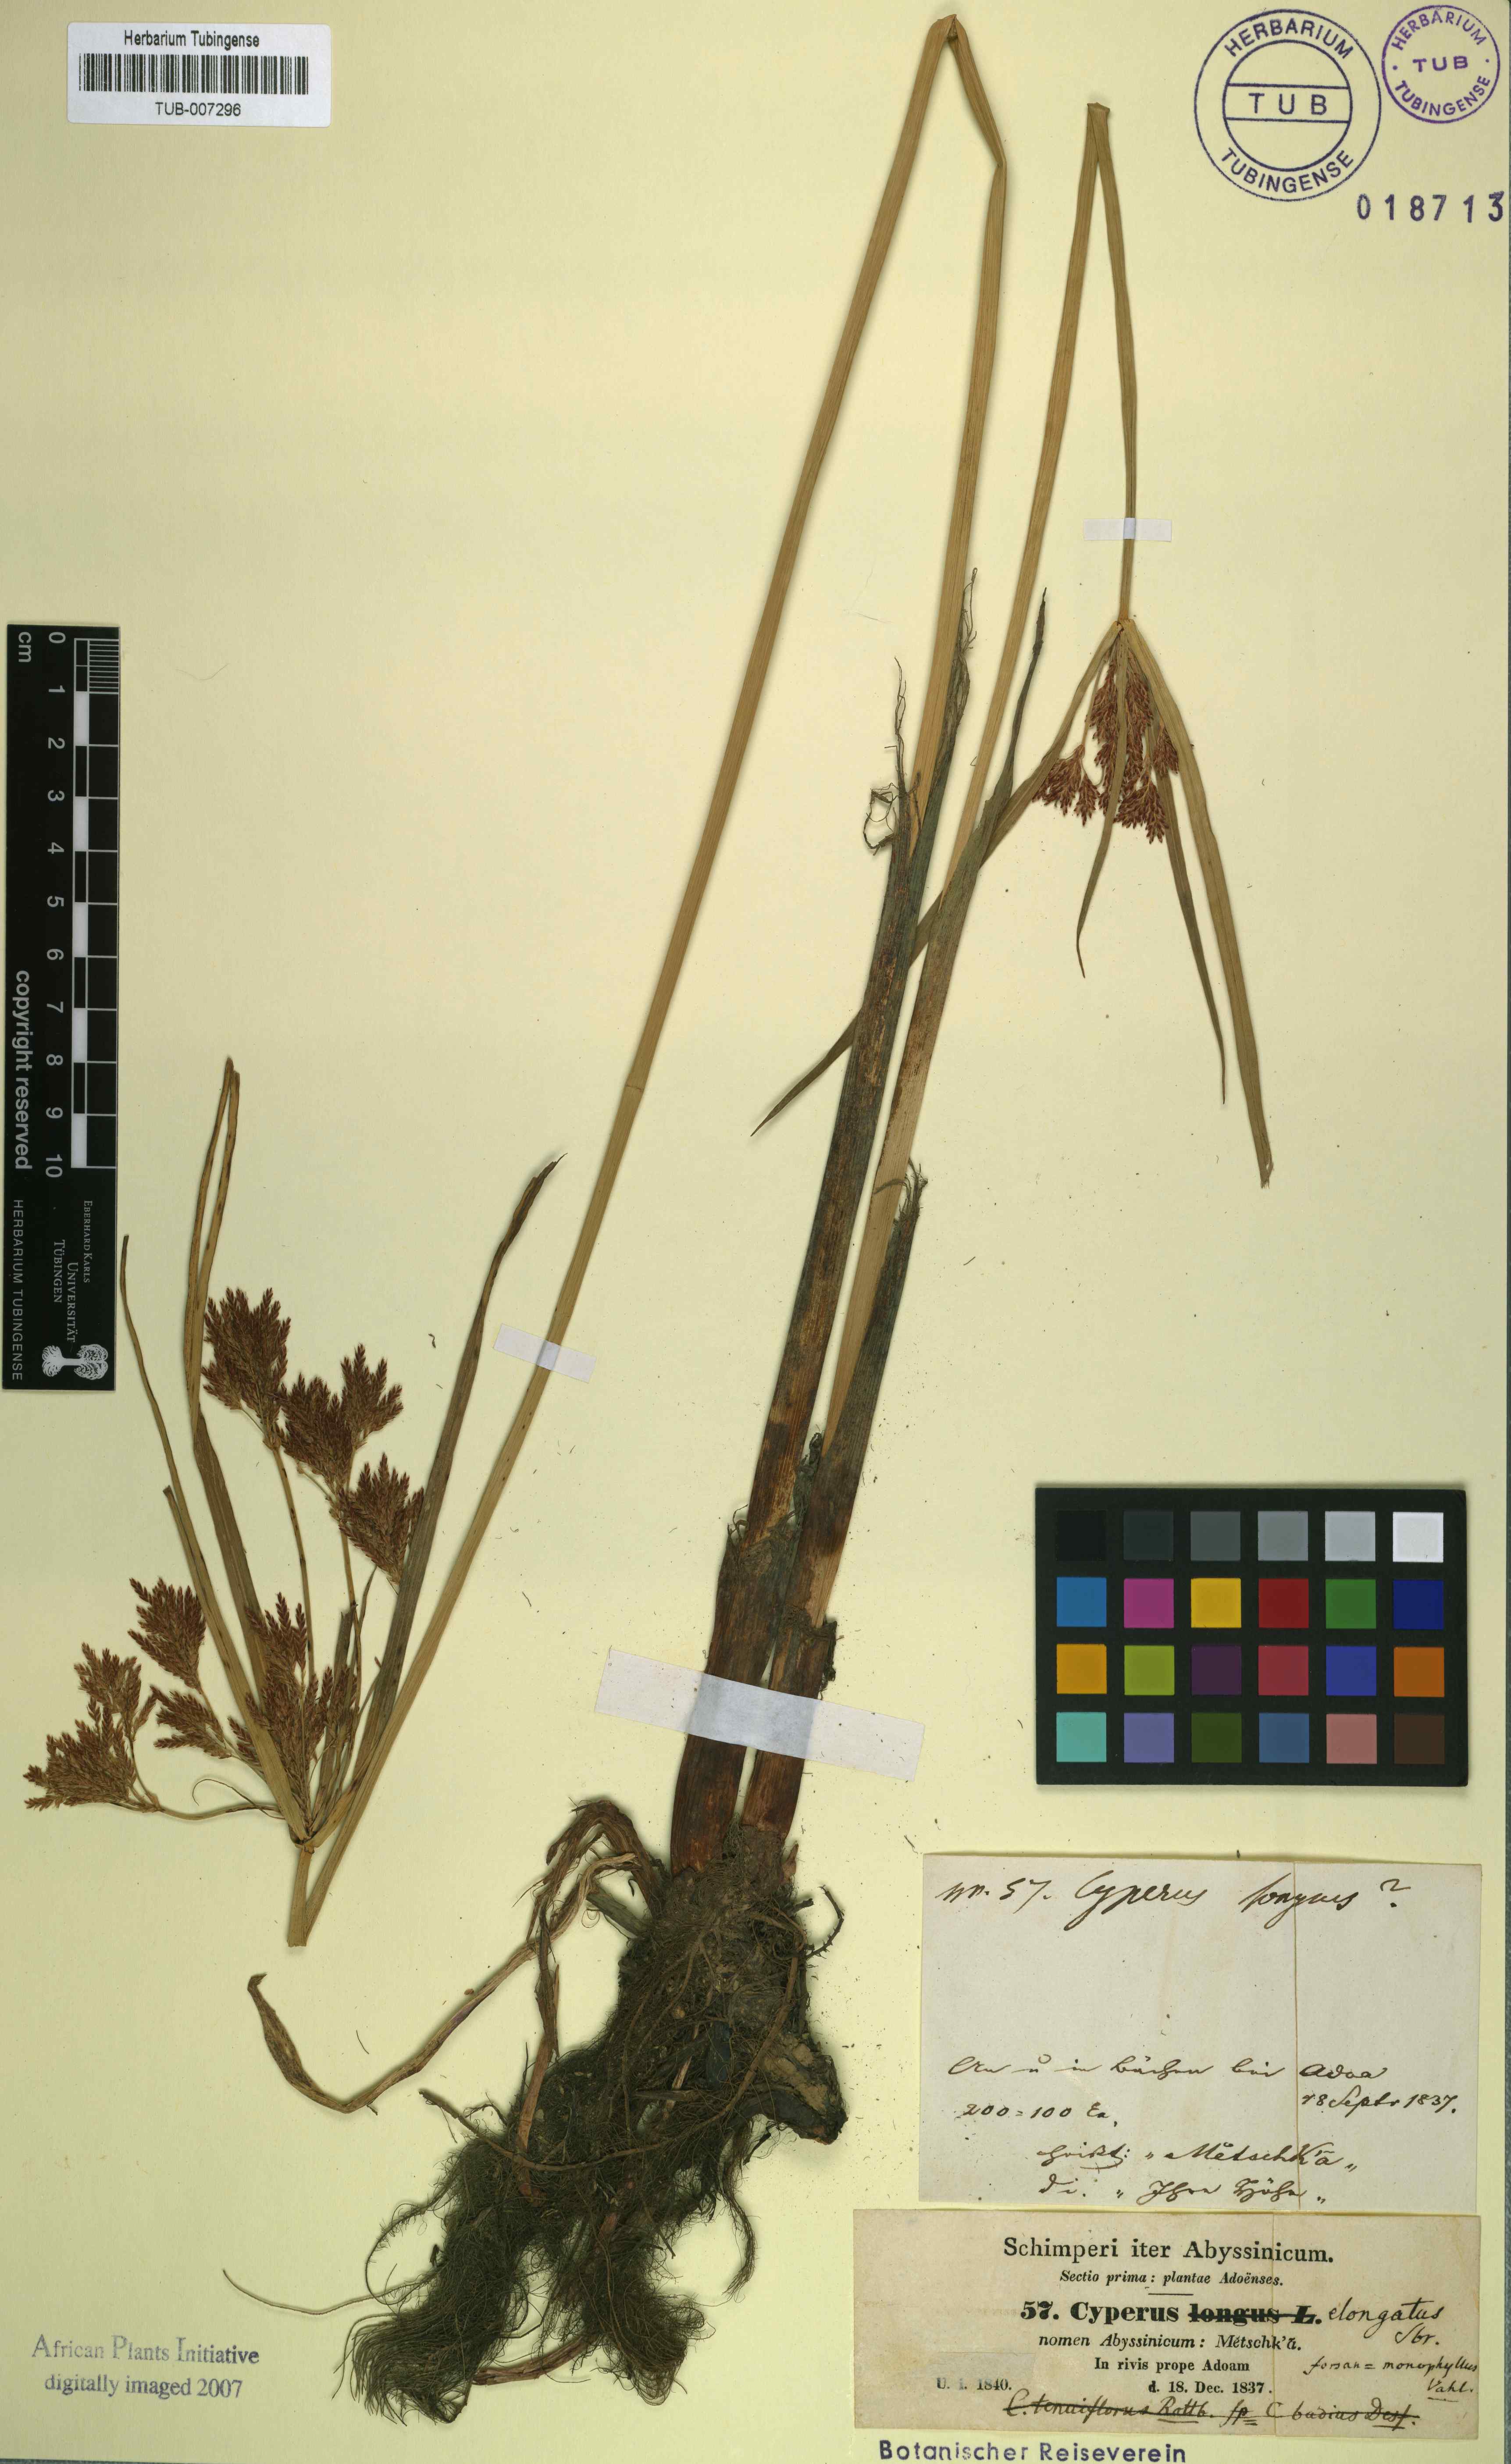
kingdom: Plantae
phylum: Tracheophyta
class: Liliopsida
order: Poales
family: Cyperaceae
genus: Cyperus
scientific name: Cyperus rotundus
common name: Nutgrass
